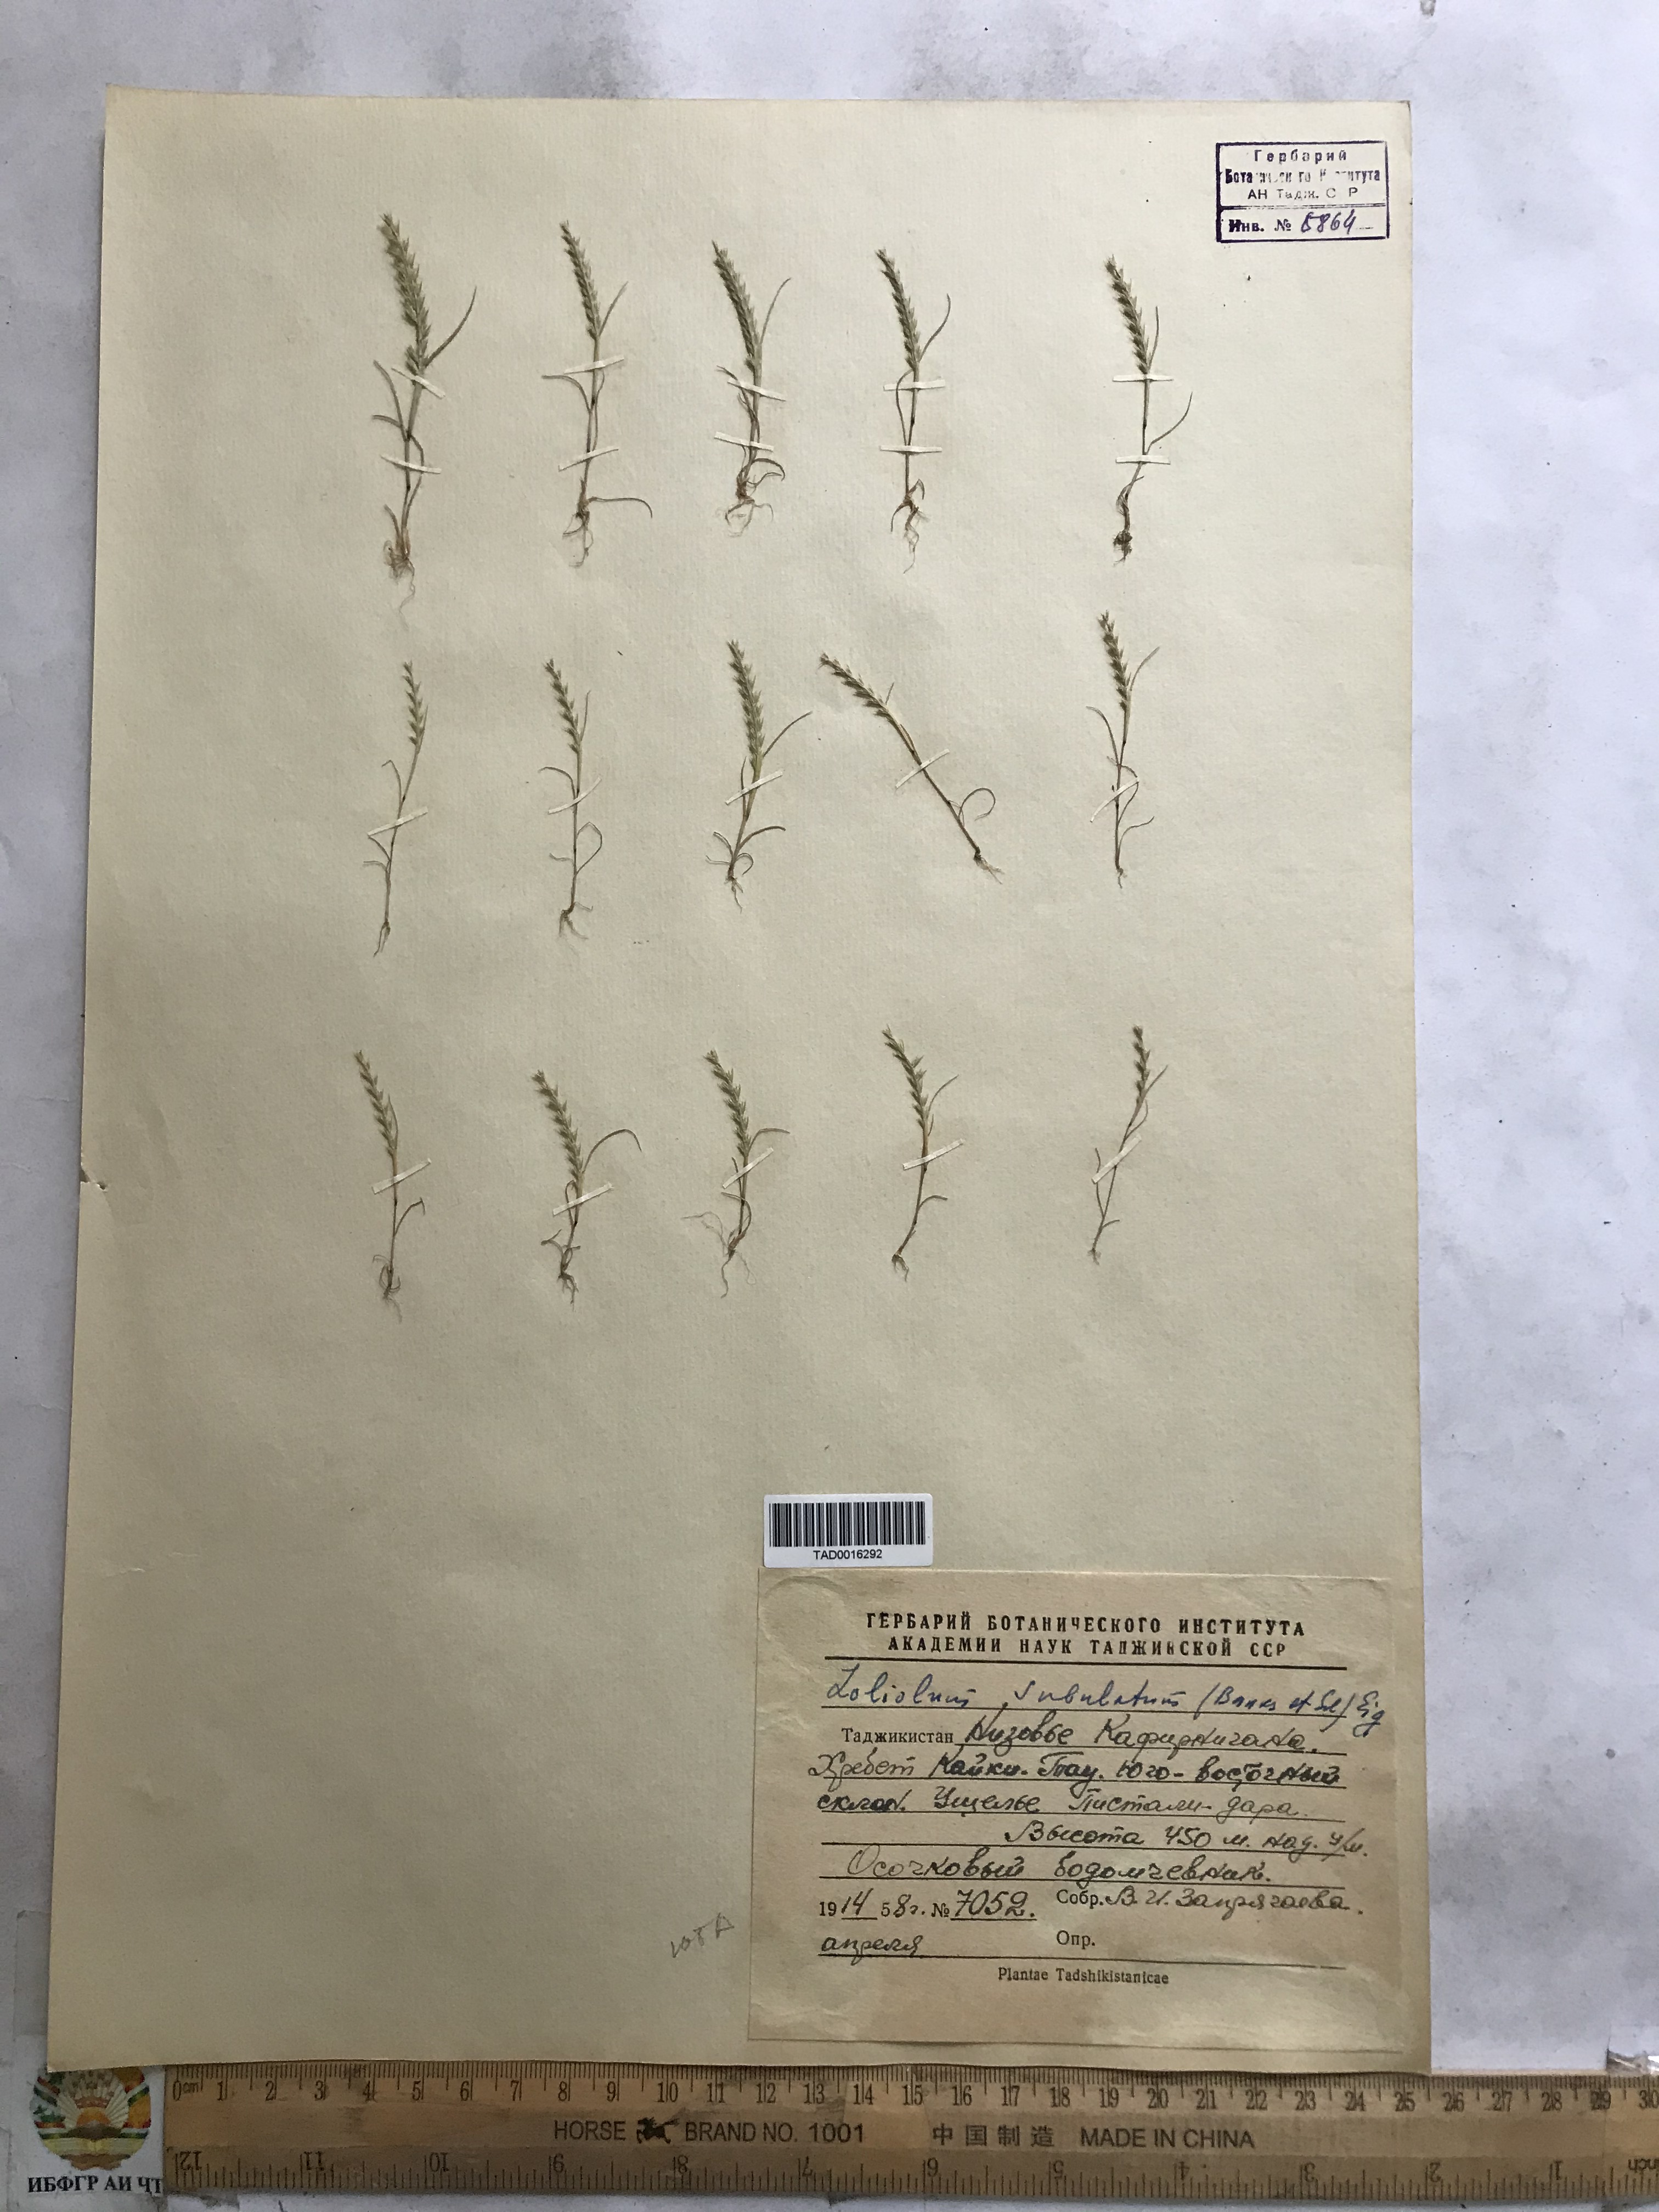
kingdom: Plantae
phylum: Tracheophyta
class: Liliopsida
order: Poales
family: Poaceae
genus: Festuca
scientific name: Festuca orientalis
